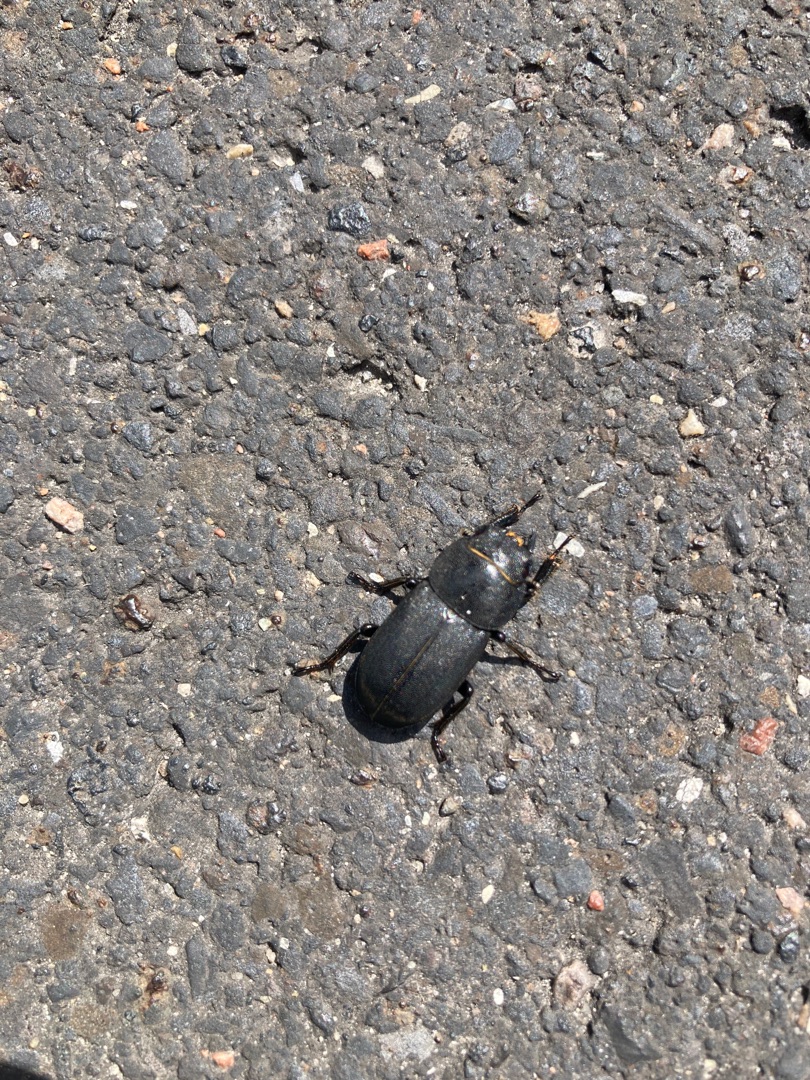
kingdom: Animalia
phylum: Arthropoda
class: Insecta
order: Coleoptera
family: Lucanidae
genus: Dorcus
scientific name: Dorcus parallelipipedus
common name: Bøghjort
